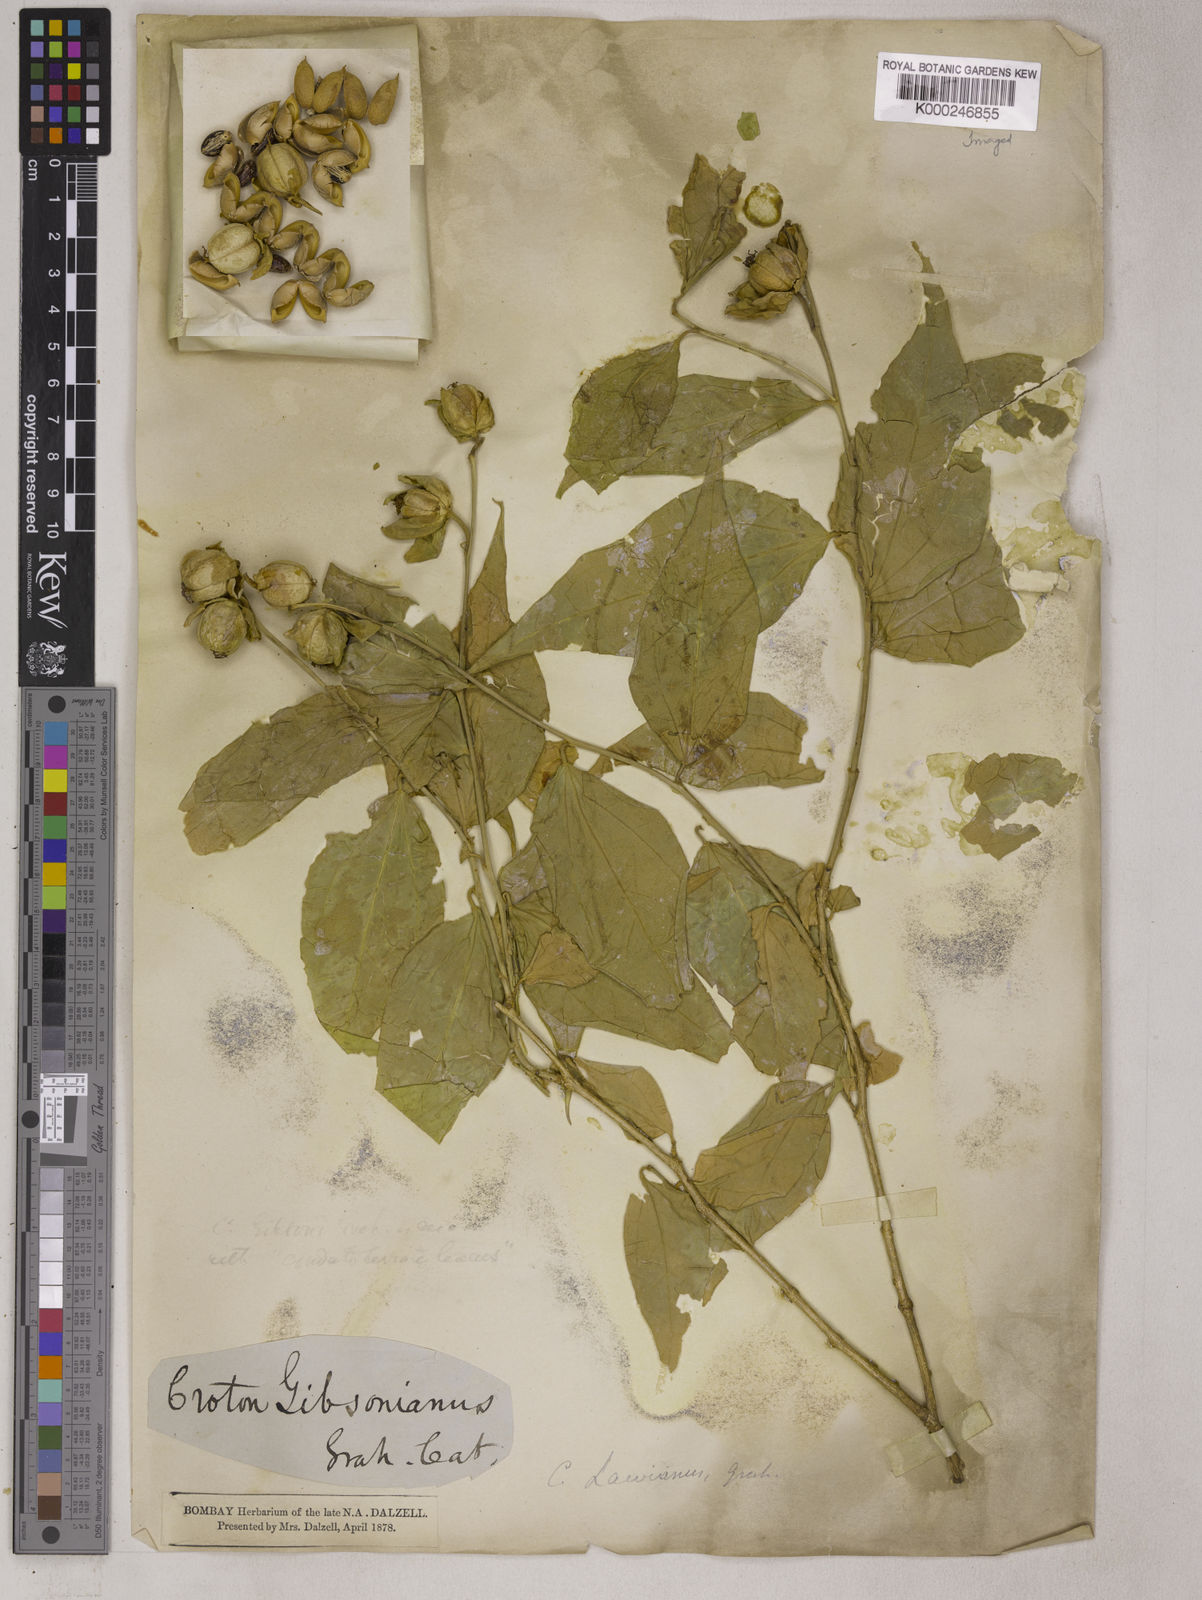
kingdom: Plantae
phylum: Tracheophyta
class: Magnoliopsida
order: Malpighiales
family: Euphorbiaceae
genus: Croton
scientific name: Croton lawianus
